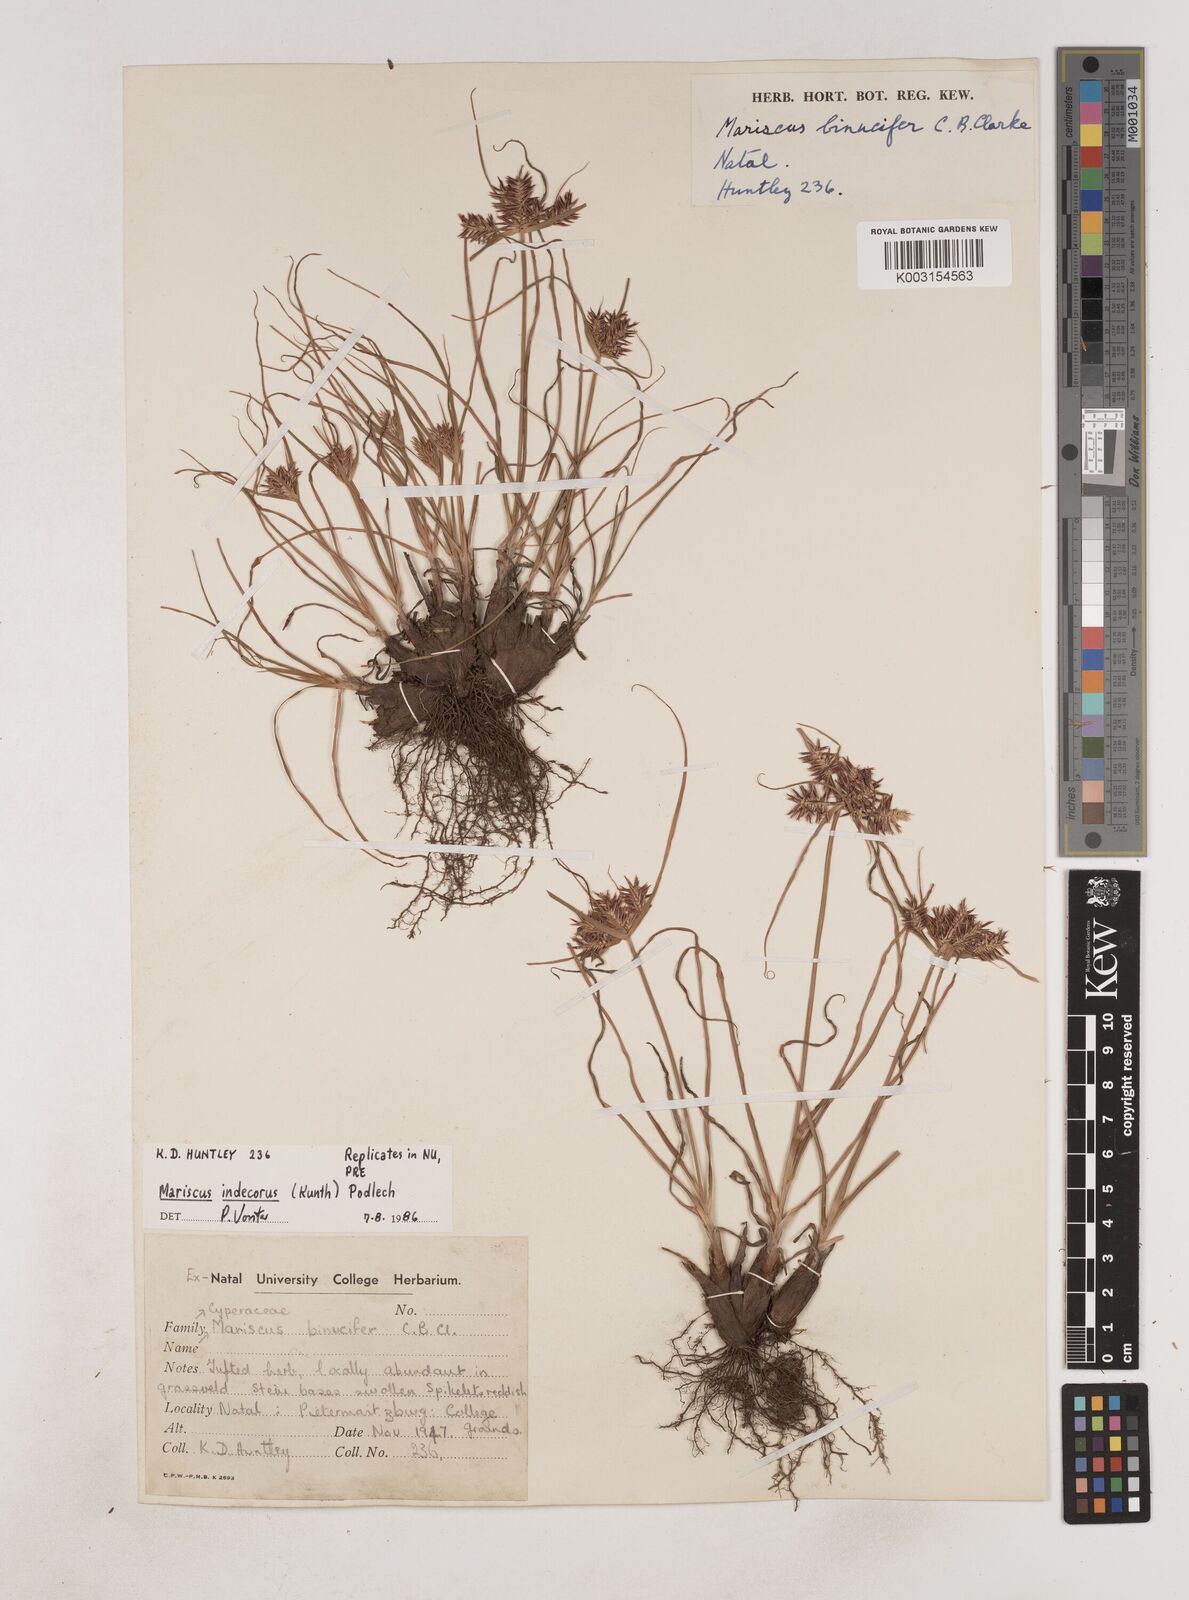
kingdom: Plantae
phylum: Tracheophyta
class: Liliopsida
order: Poales
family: Cyperaceae
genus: Cyperus
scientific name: Cyperus indecorus
